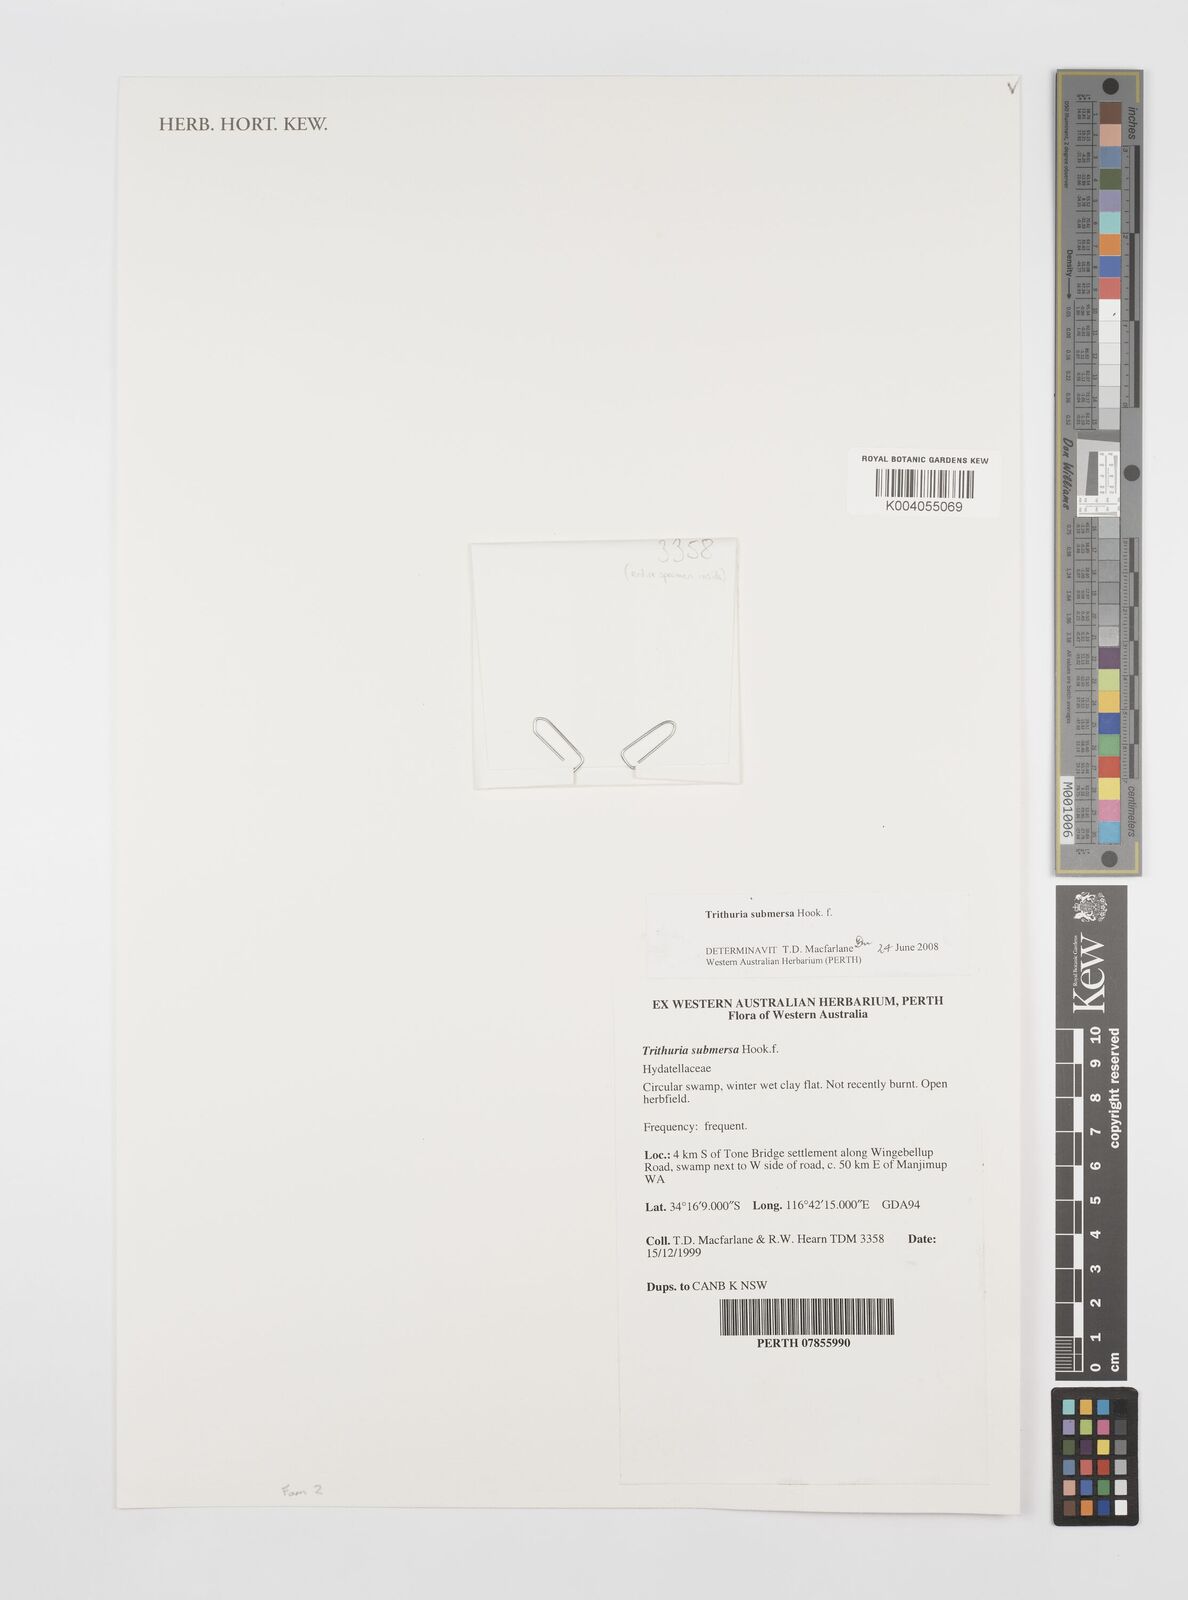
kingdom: Plantae
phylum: Tracheophyta
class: Magnoliopsida
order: Nymphaeales
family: Hydatellaceae
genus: Trithuria
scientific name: Trithuria submersa
